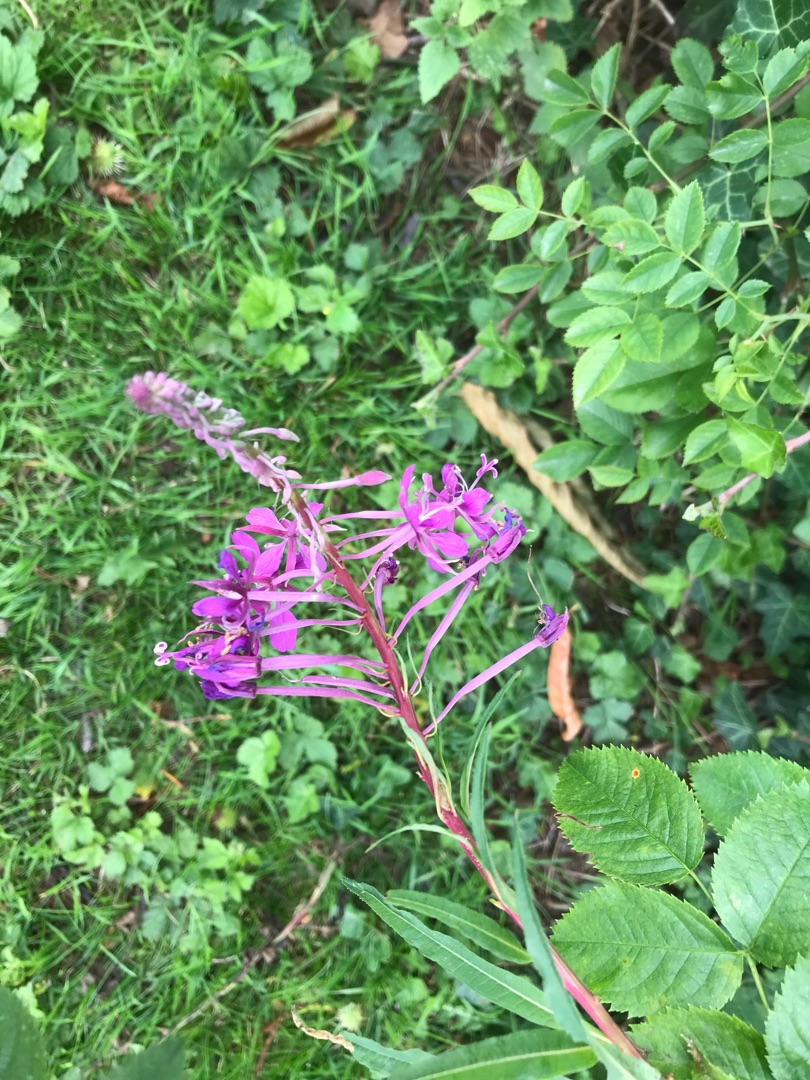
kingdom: Plantae
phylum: Tracheophyta
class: Magnoliopsida
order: Myrtales
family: Onagraceae
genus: Chamaenerion
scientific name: Chamaenerion angustifolium
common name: Gederams
